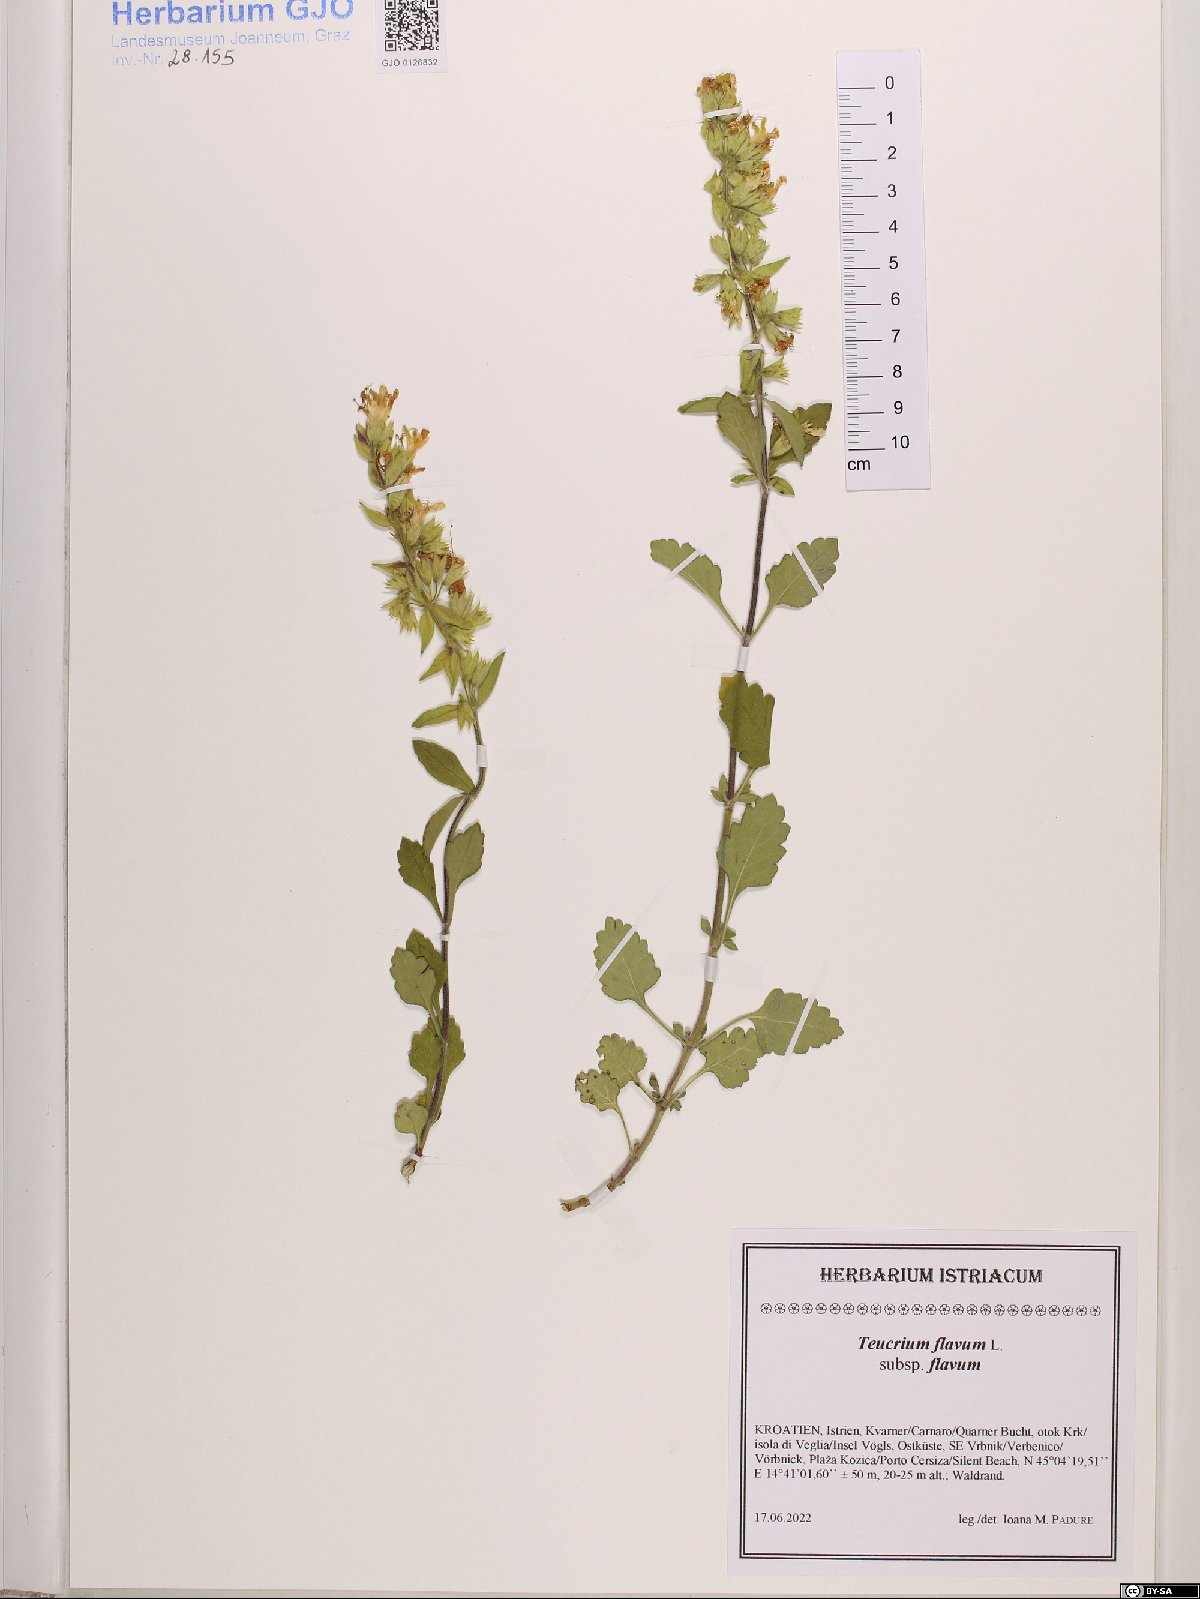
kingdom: Plantae
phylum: Tracheophyta
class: Magnoliopsida
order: Lamiales
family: Lamiaceae
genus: Teucrium
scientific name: Teucrium flavum
